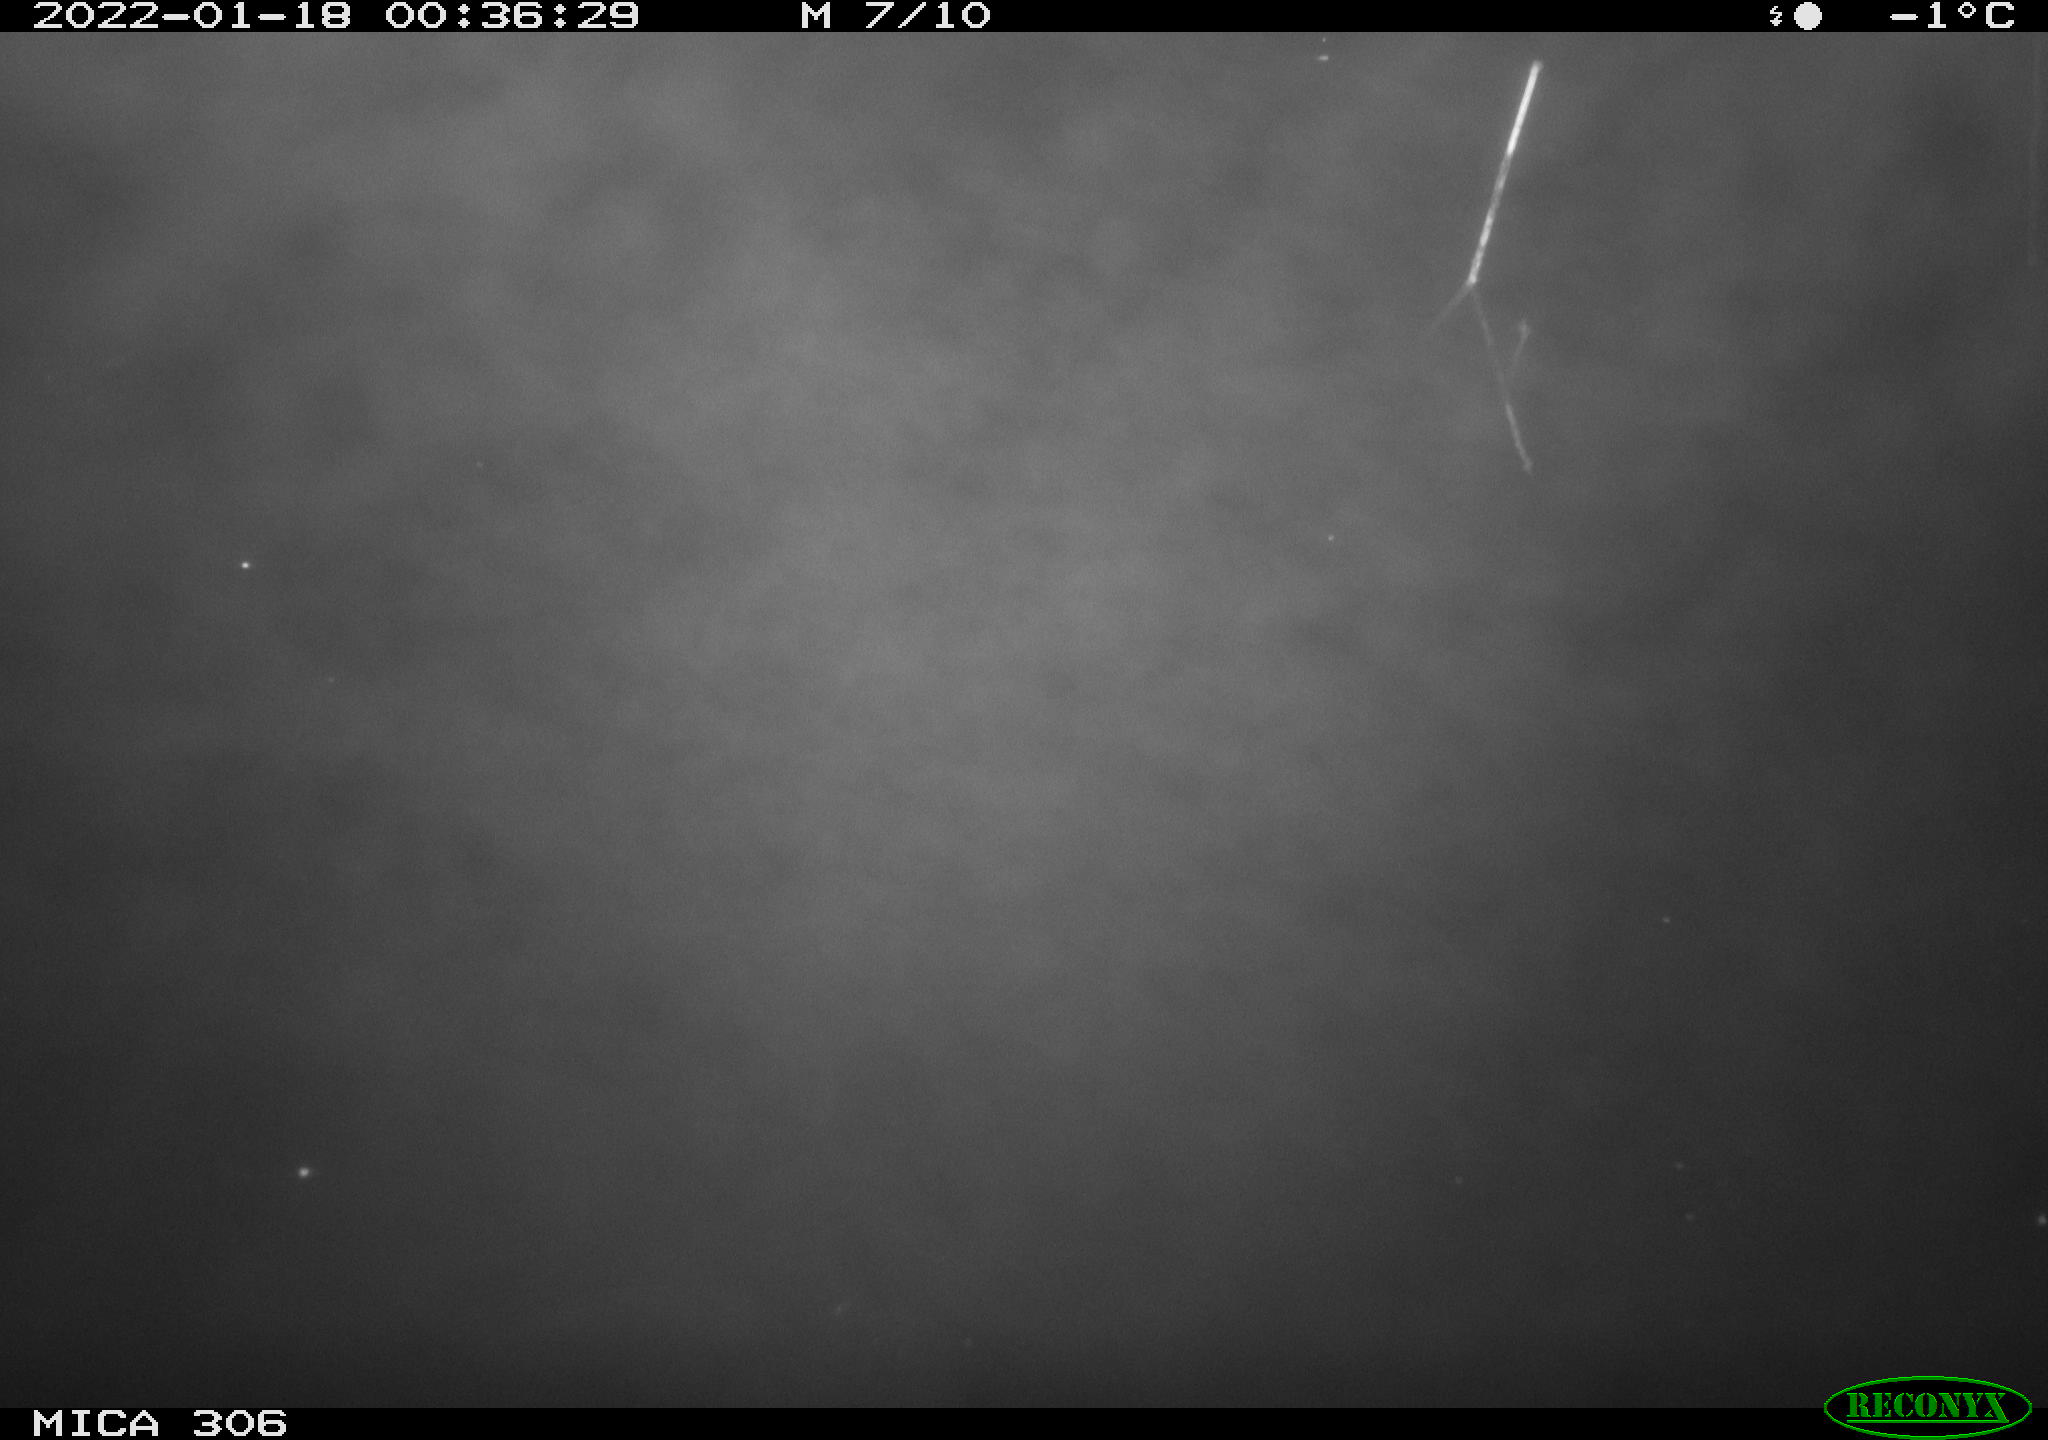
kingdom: Animalia
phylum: Chordata
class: Mammalia
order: Rodentia
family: Cricetidae
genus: Ondatra
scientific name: Ondatra zibethicus
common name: Muskrat
